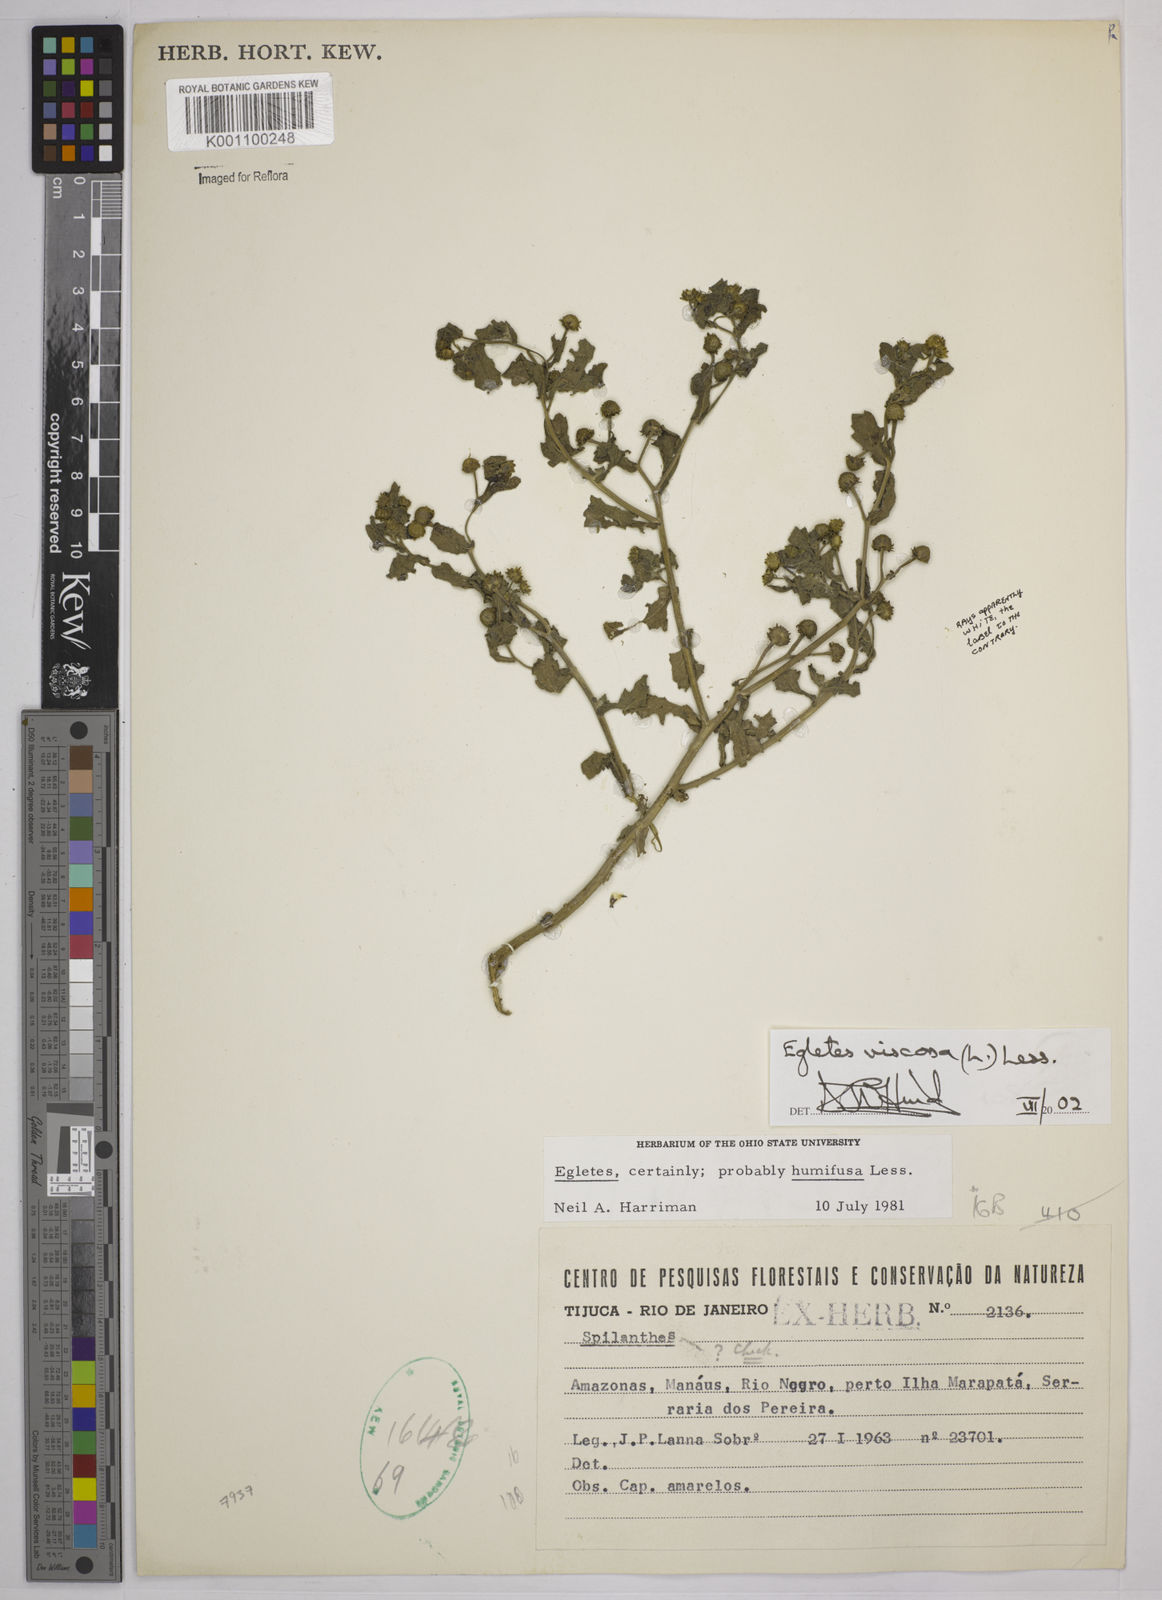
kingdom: Plantae
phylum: Tracheophyta
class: Magnoliopsida
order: Asterales
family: Asteraceae
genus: Egletes
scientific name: Egletes viscosa
